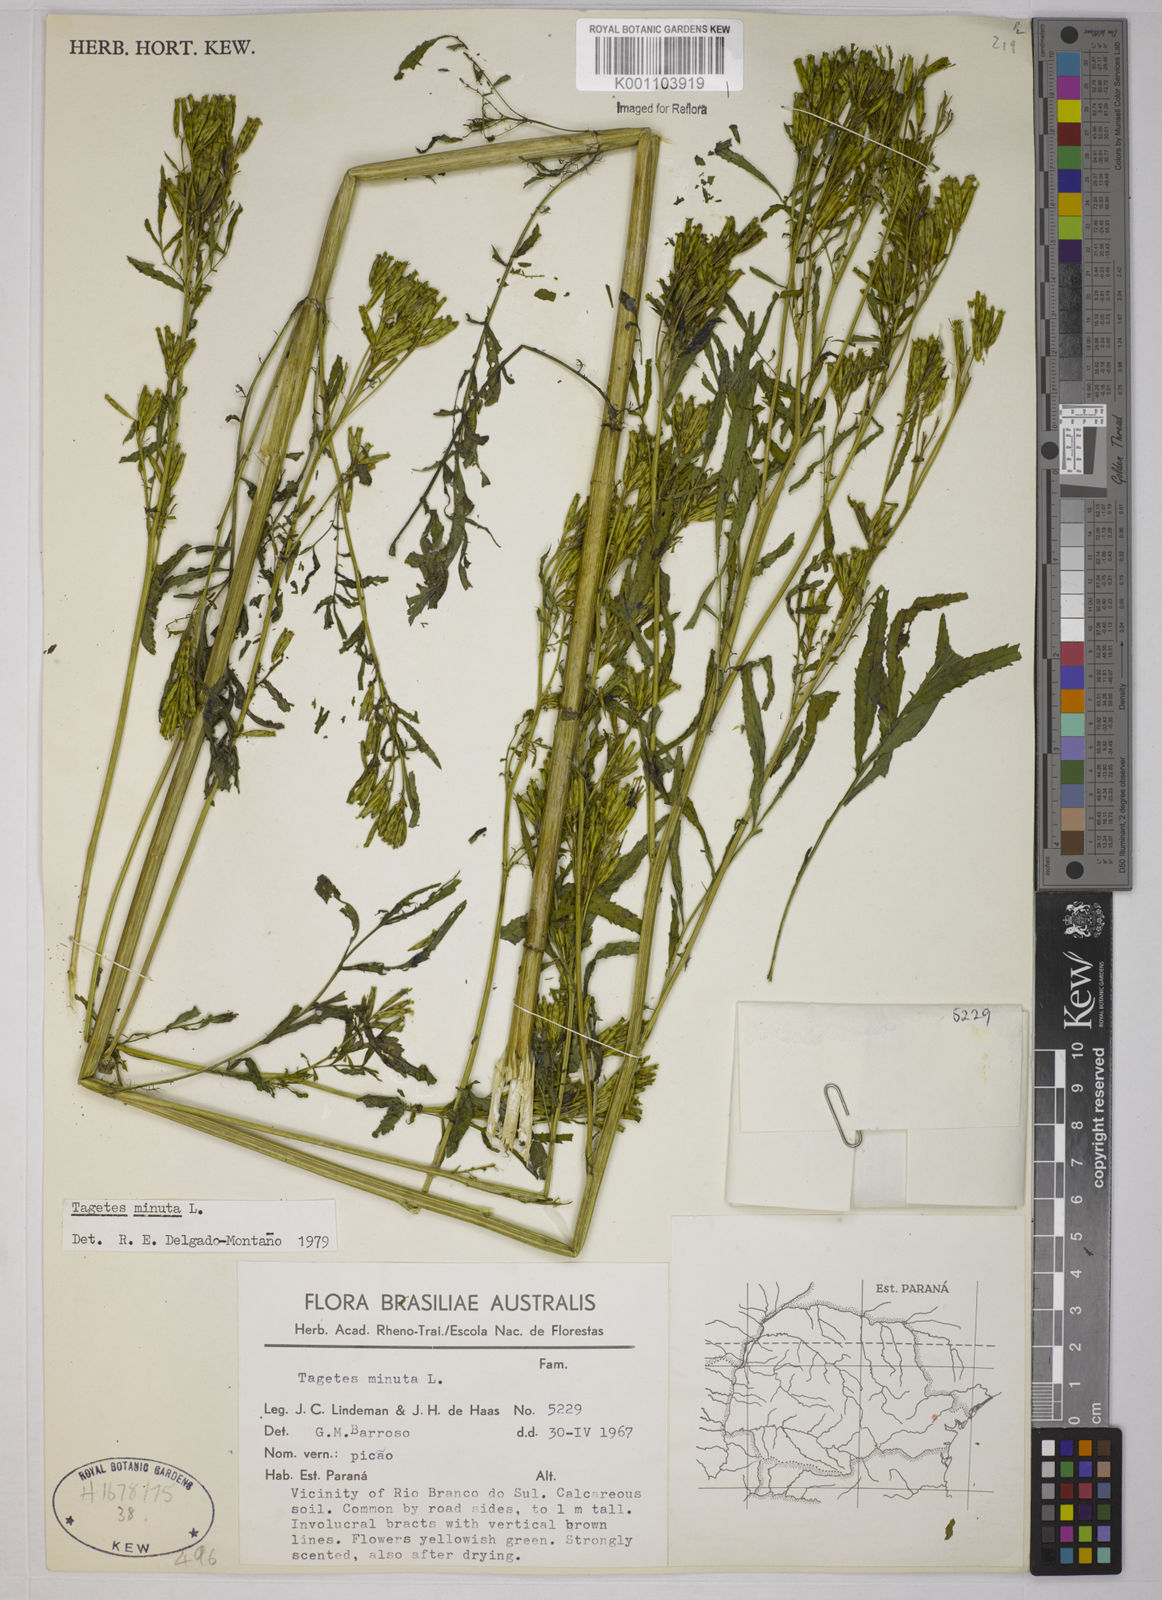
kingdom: Plantae
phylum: Tracheophyta
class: Magnoliopsida
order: Asterales
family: Asteraceae
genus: Tagetes
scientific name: Tagetes minuta
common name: Muster john henry
